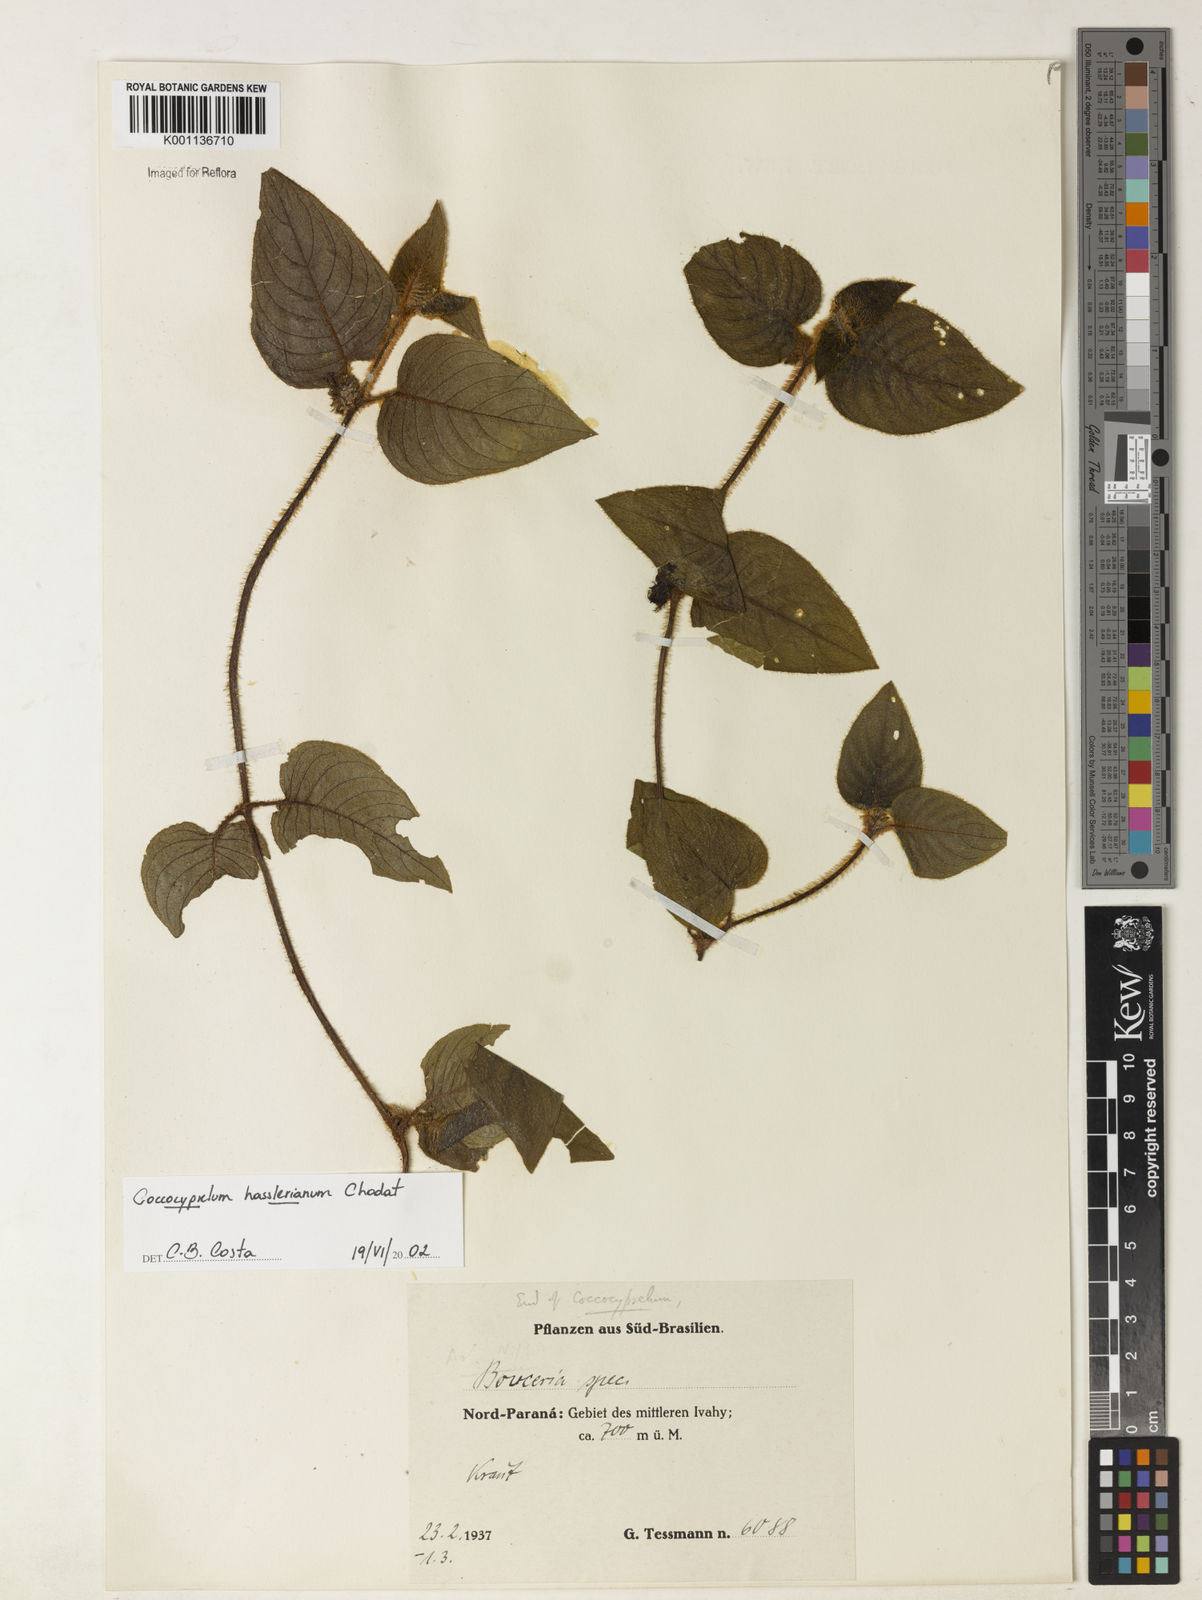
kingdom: Plantae
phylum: Tracheophyta
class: Magnoliopsida
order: Gentianales
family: Rubiaceae
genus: Coccocypselum
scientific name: Coccocypselum hasslerianum
